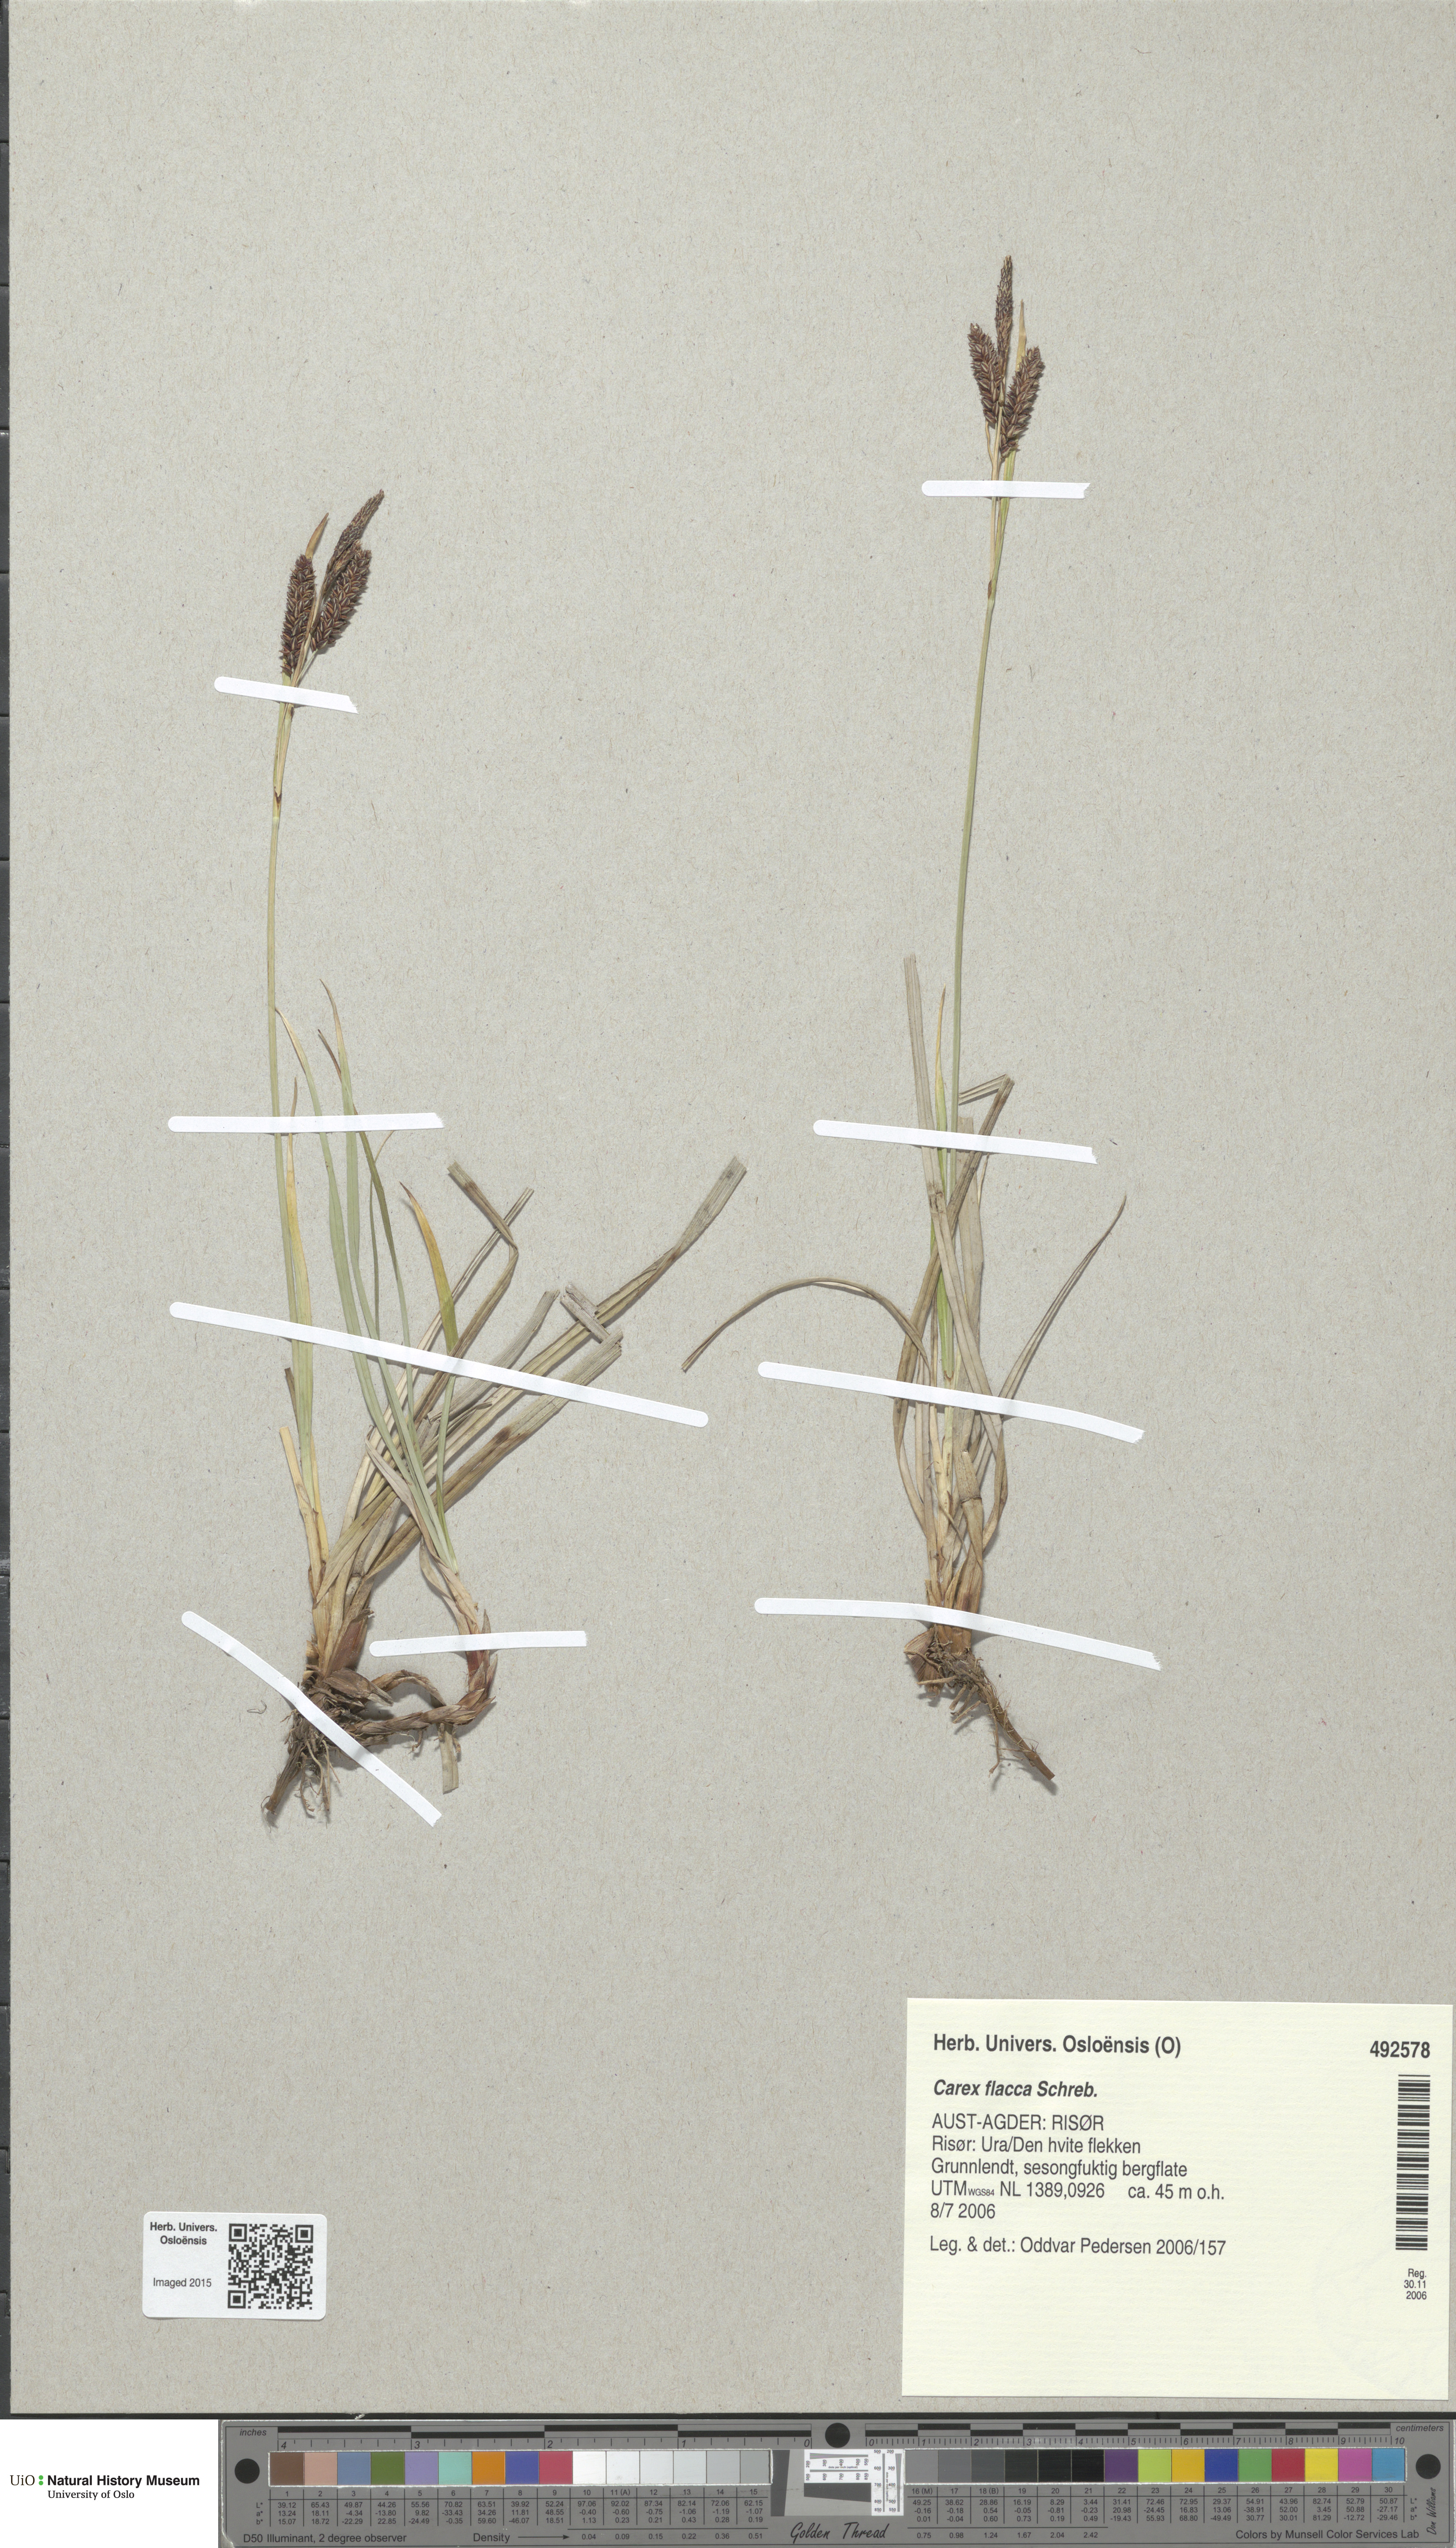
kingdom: Plantae
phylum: Tracheophyta
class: Liliopsida
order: Poales
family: Cyperaceae
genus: Carex
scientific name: Carex flacca
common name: Glaucous sedge
